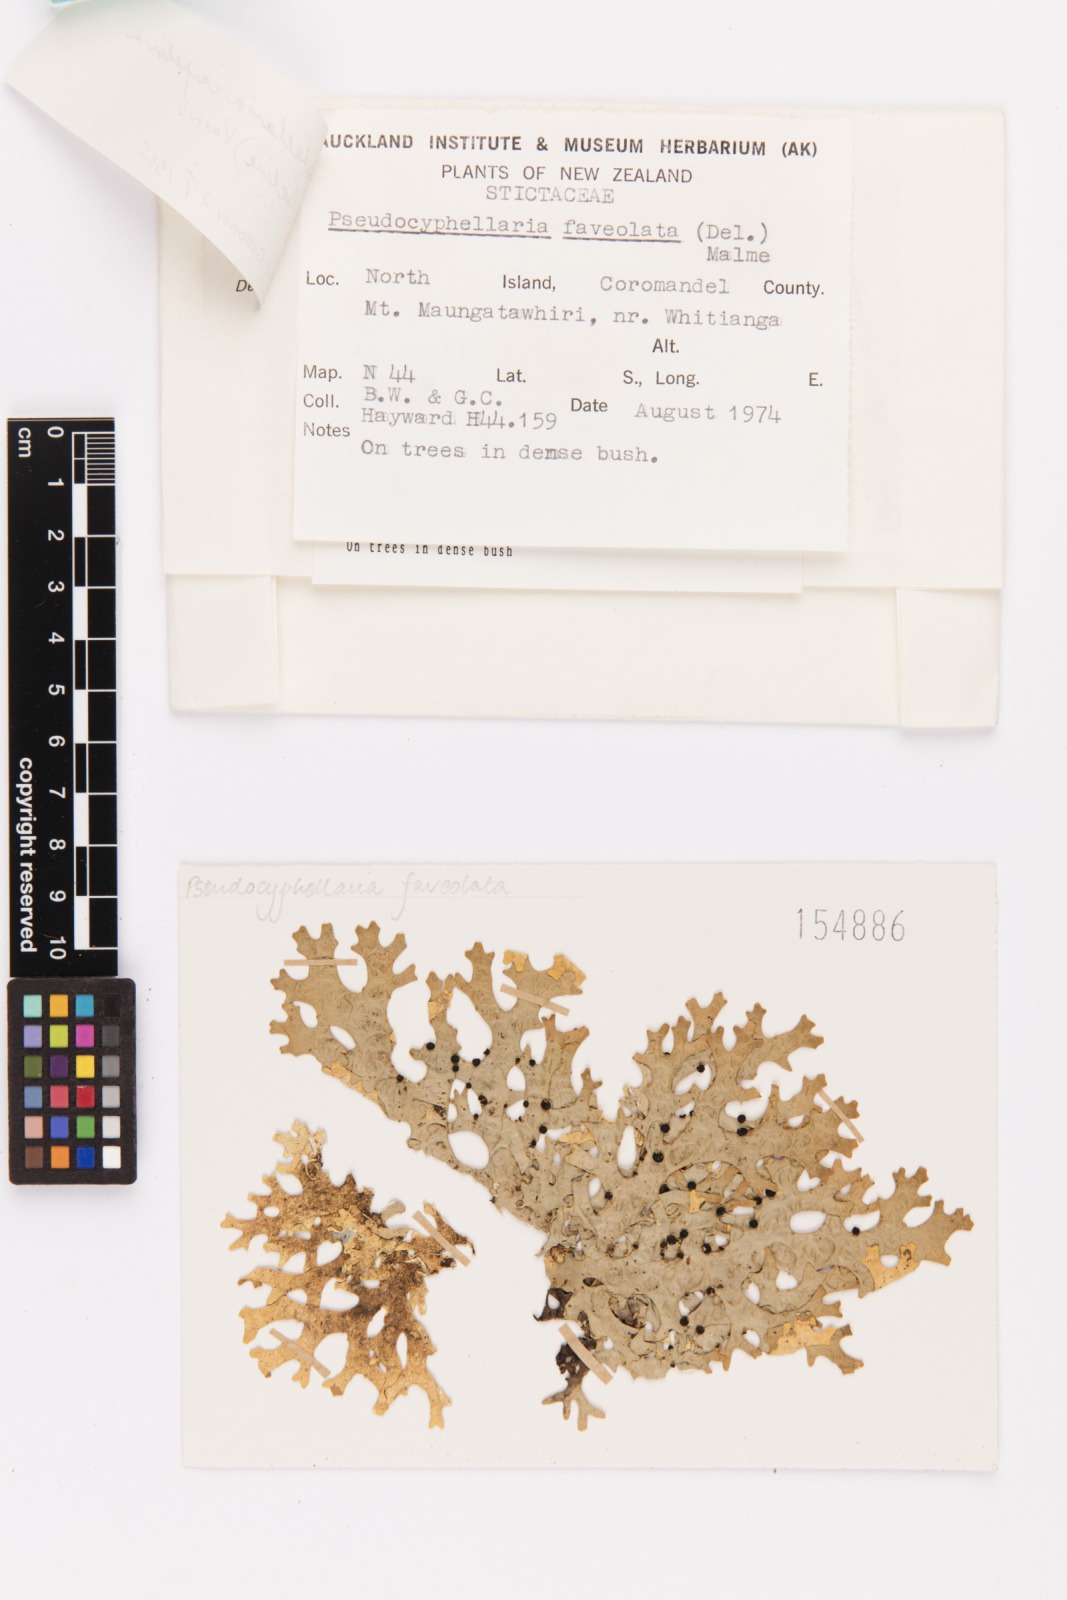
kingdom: Fungi
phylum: Ascomycota
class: Lecanoromycetes
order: Peltigerales
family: Lobariaceae
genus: Pseudocyphellaria
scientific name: Pseudocyphellaria carpoloma
